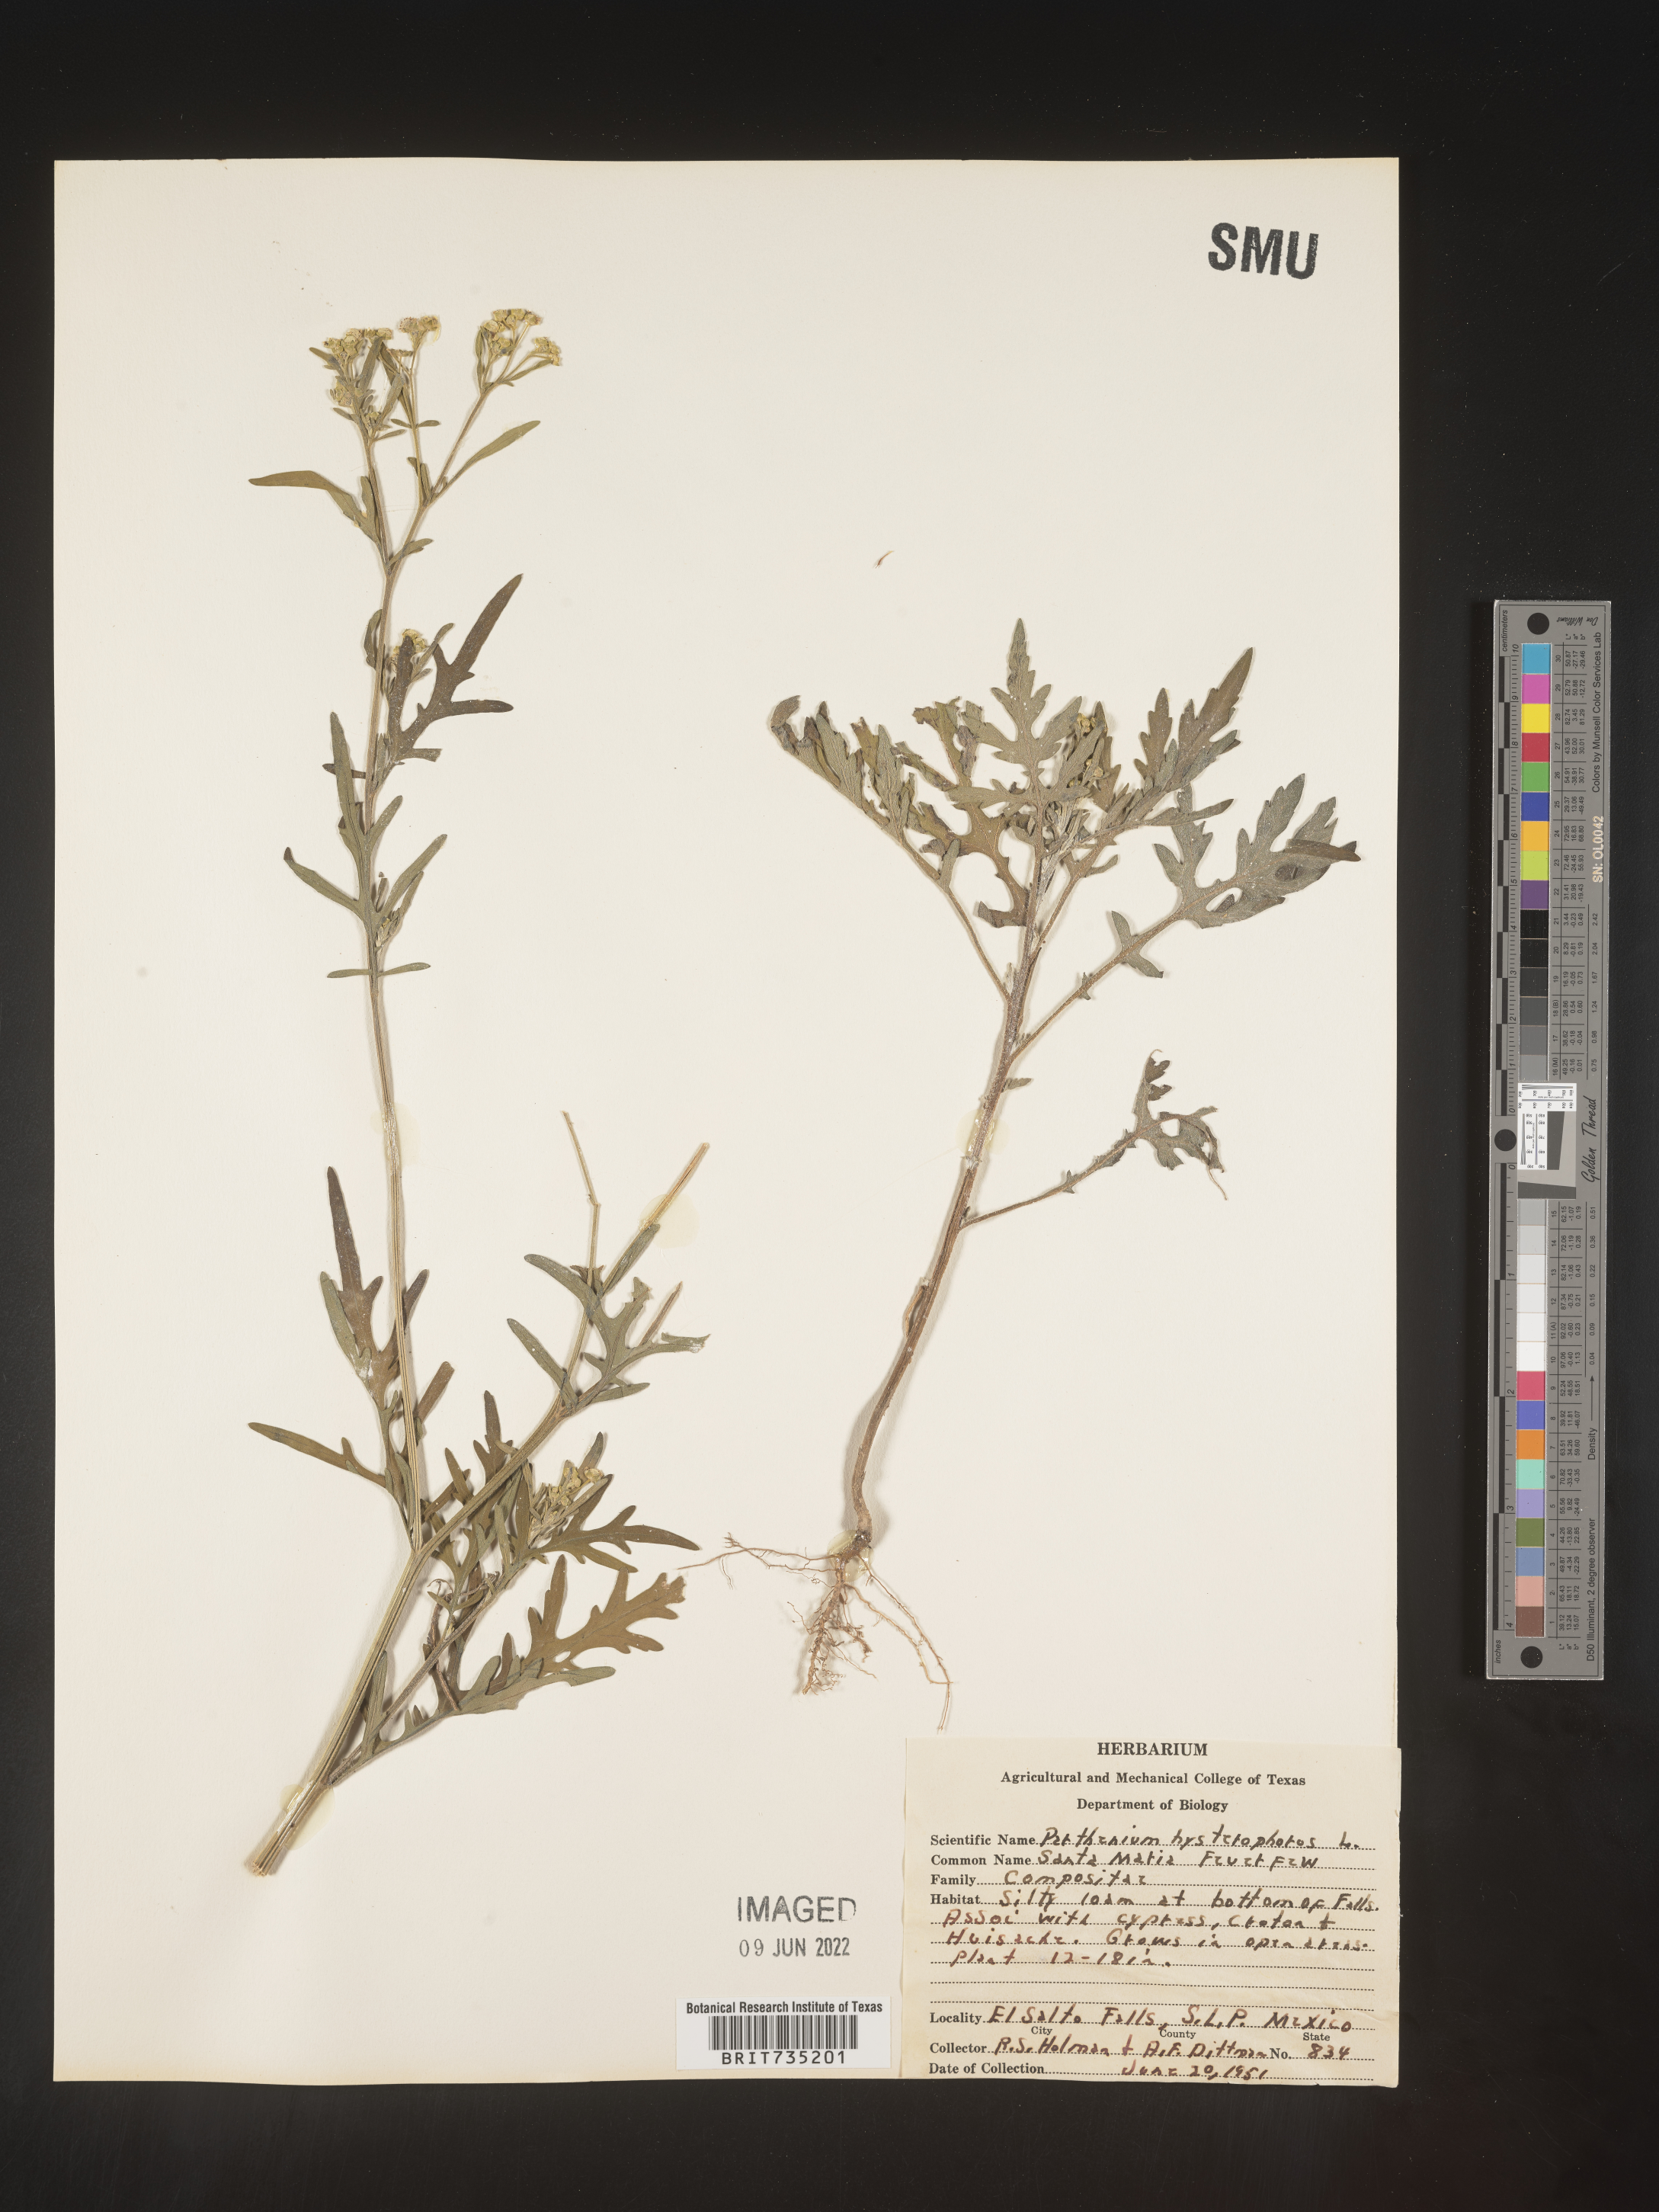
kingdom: Plantae
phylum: Tracheophyta
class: Magnoliopsida
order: Asterales
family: Asteraceae
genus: Parthenium
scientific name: Parthenium hysterophorus
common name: Santa maria feverfew
